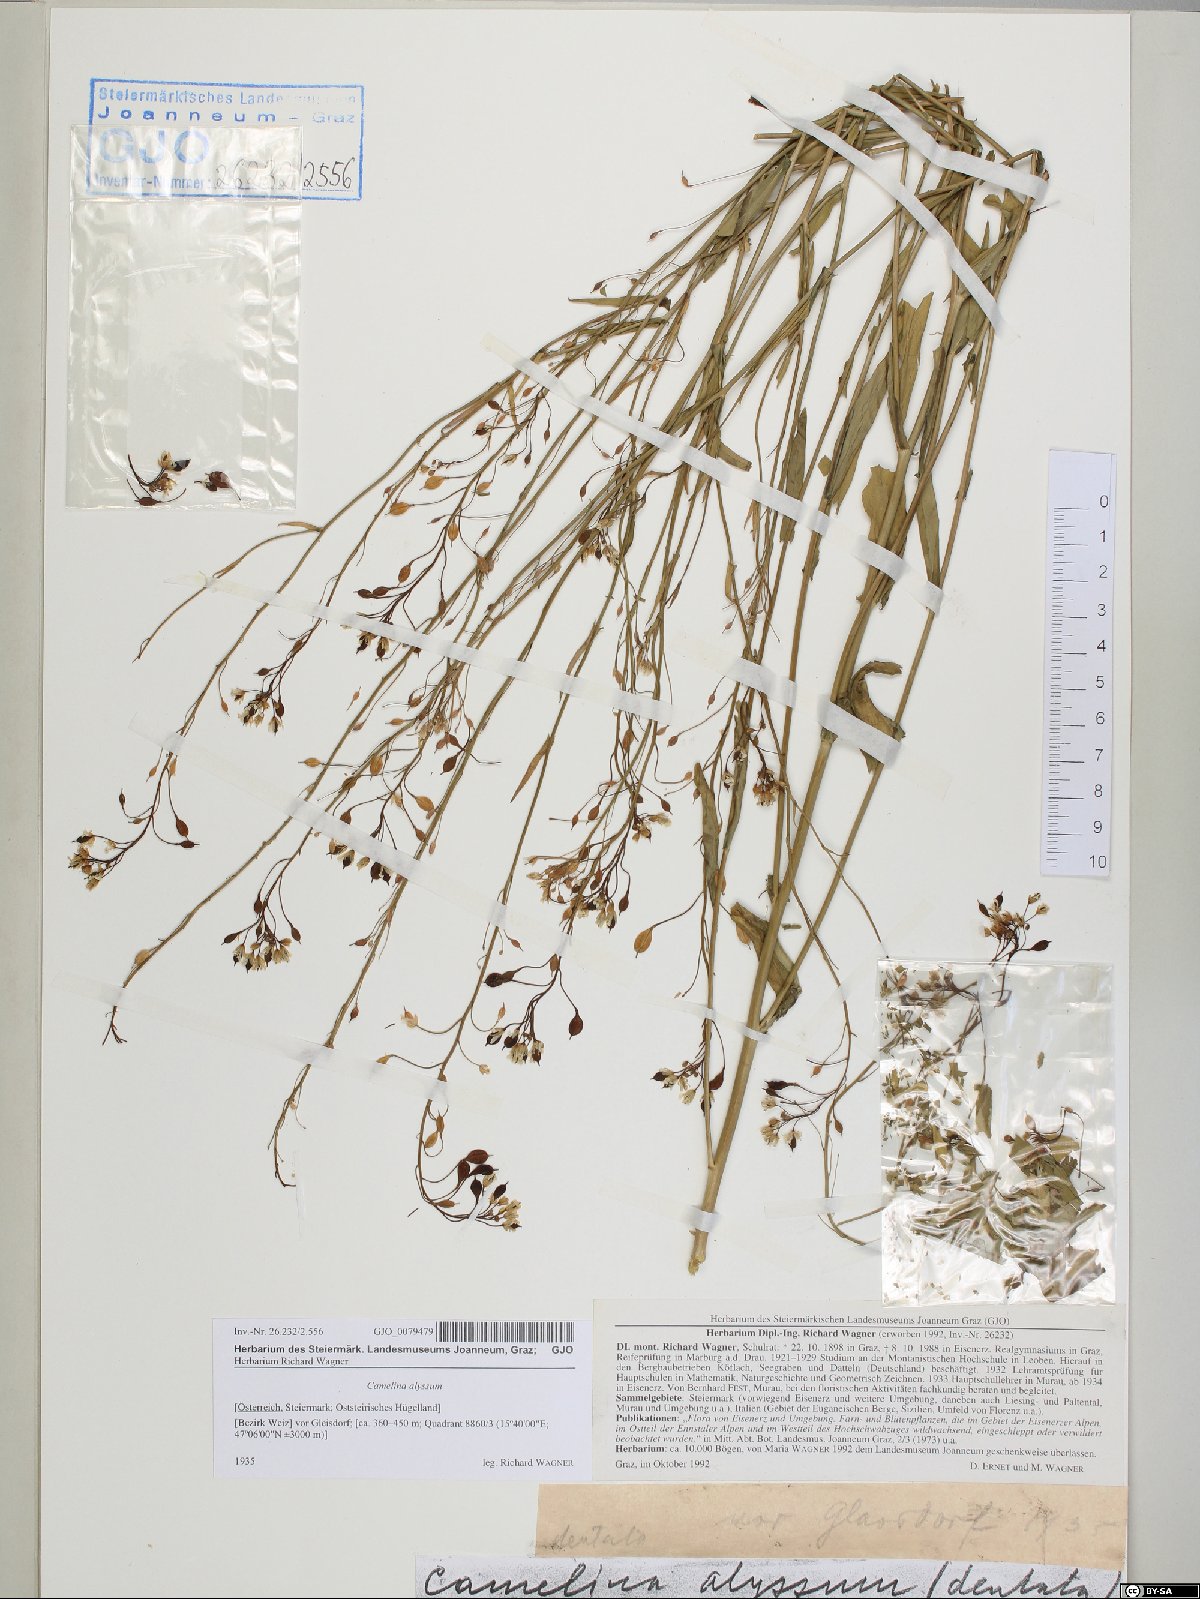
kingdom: Plantae
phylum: Tracheophyta
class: Magnoliopsida
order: Brassicales
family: Brassicaceae
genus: Camelina
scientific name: Camelina alyssum
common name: Gold-of-pleasure
